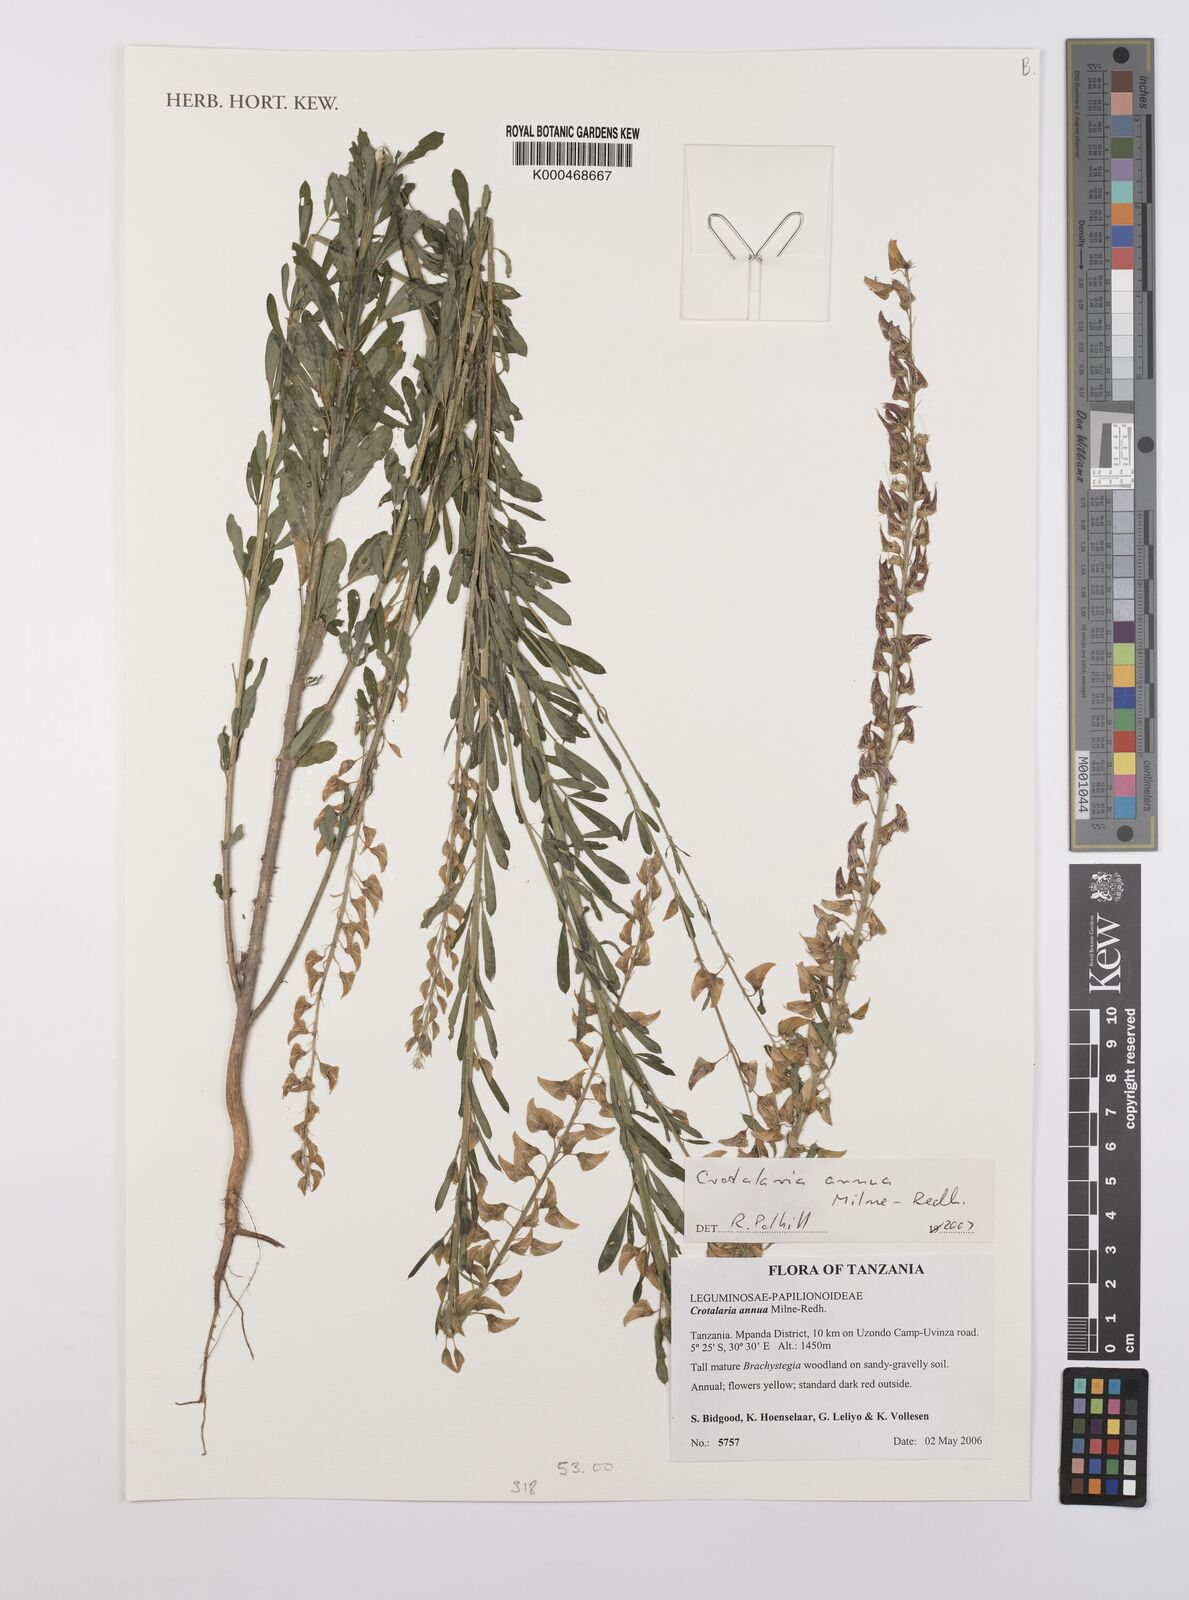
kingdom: Plantae
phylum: Tracheophyta
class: Magnoliopsida
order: Fabales
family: Fabaceae
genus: Crotalaria
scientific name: Crotalaria annua
